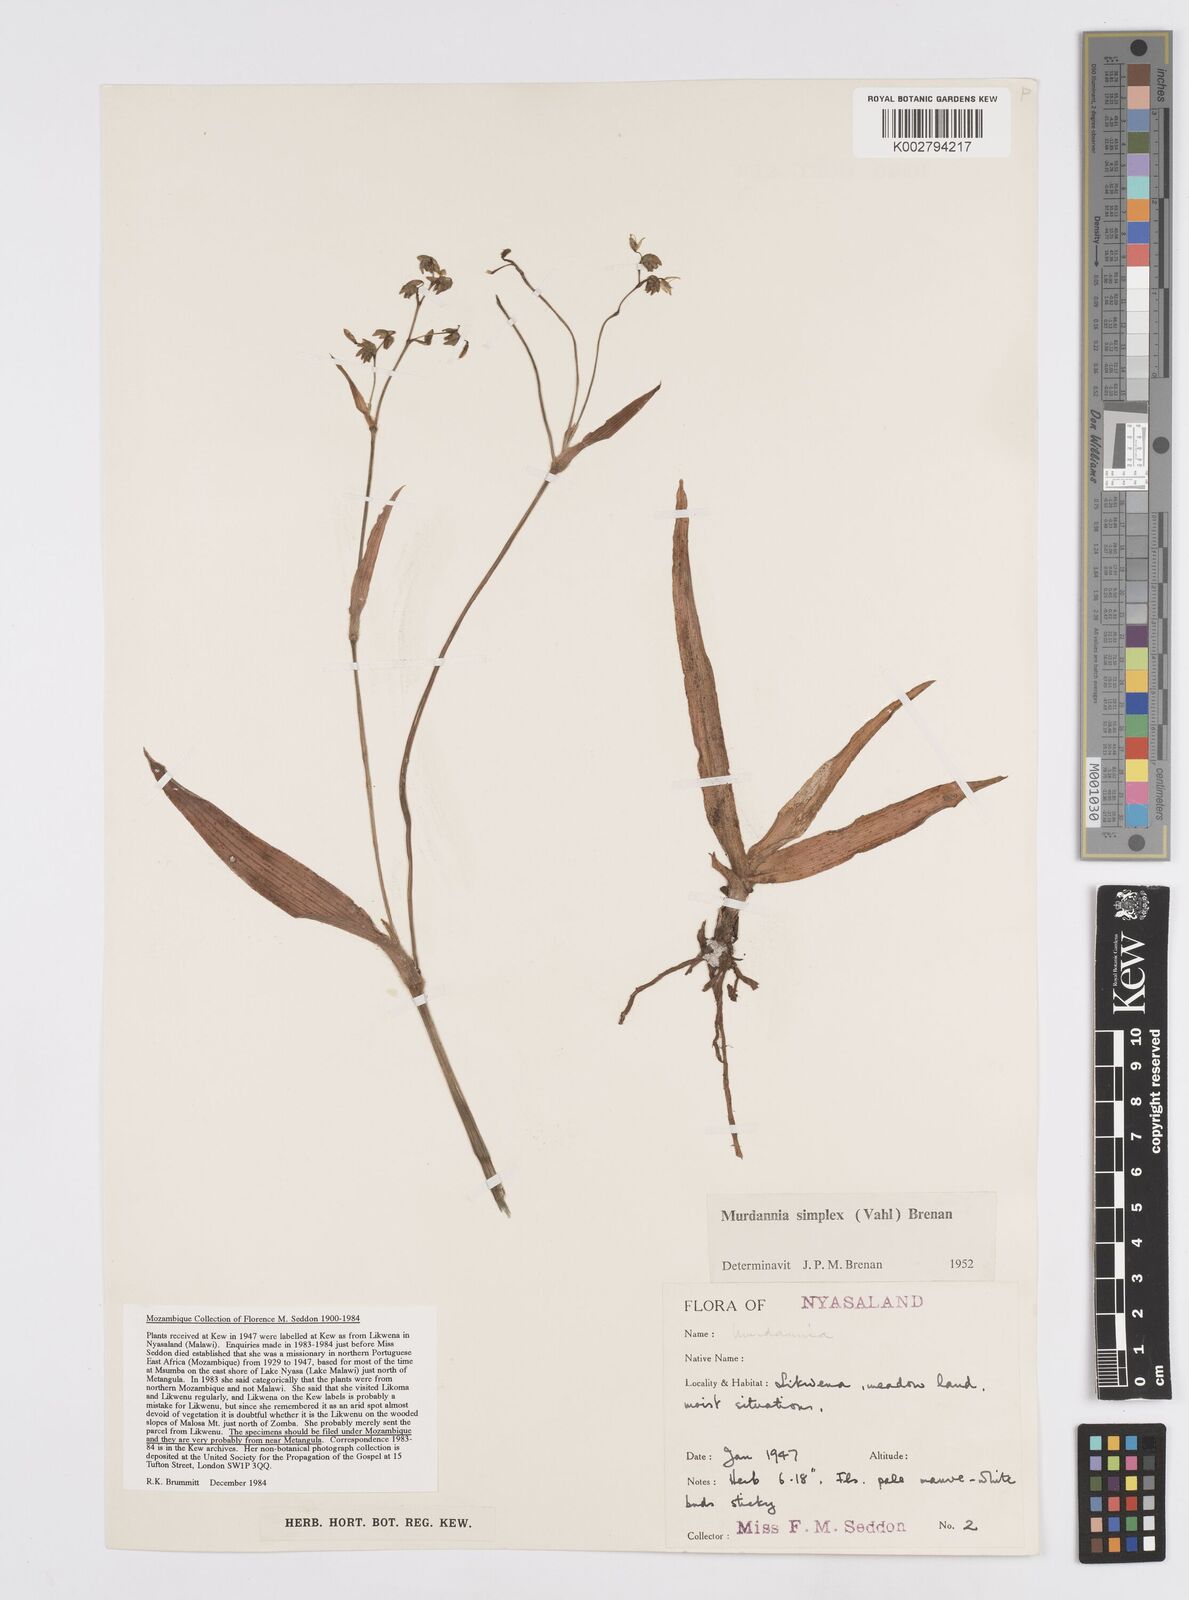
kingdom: Plantae
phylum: Tracheophyta
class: Liliopsida
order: Commelinales
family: Commelinaceae
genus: Murdannia
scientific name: Murdannia simplex
